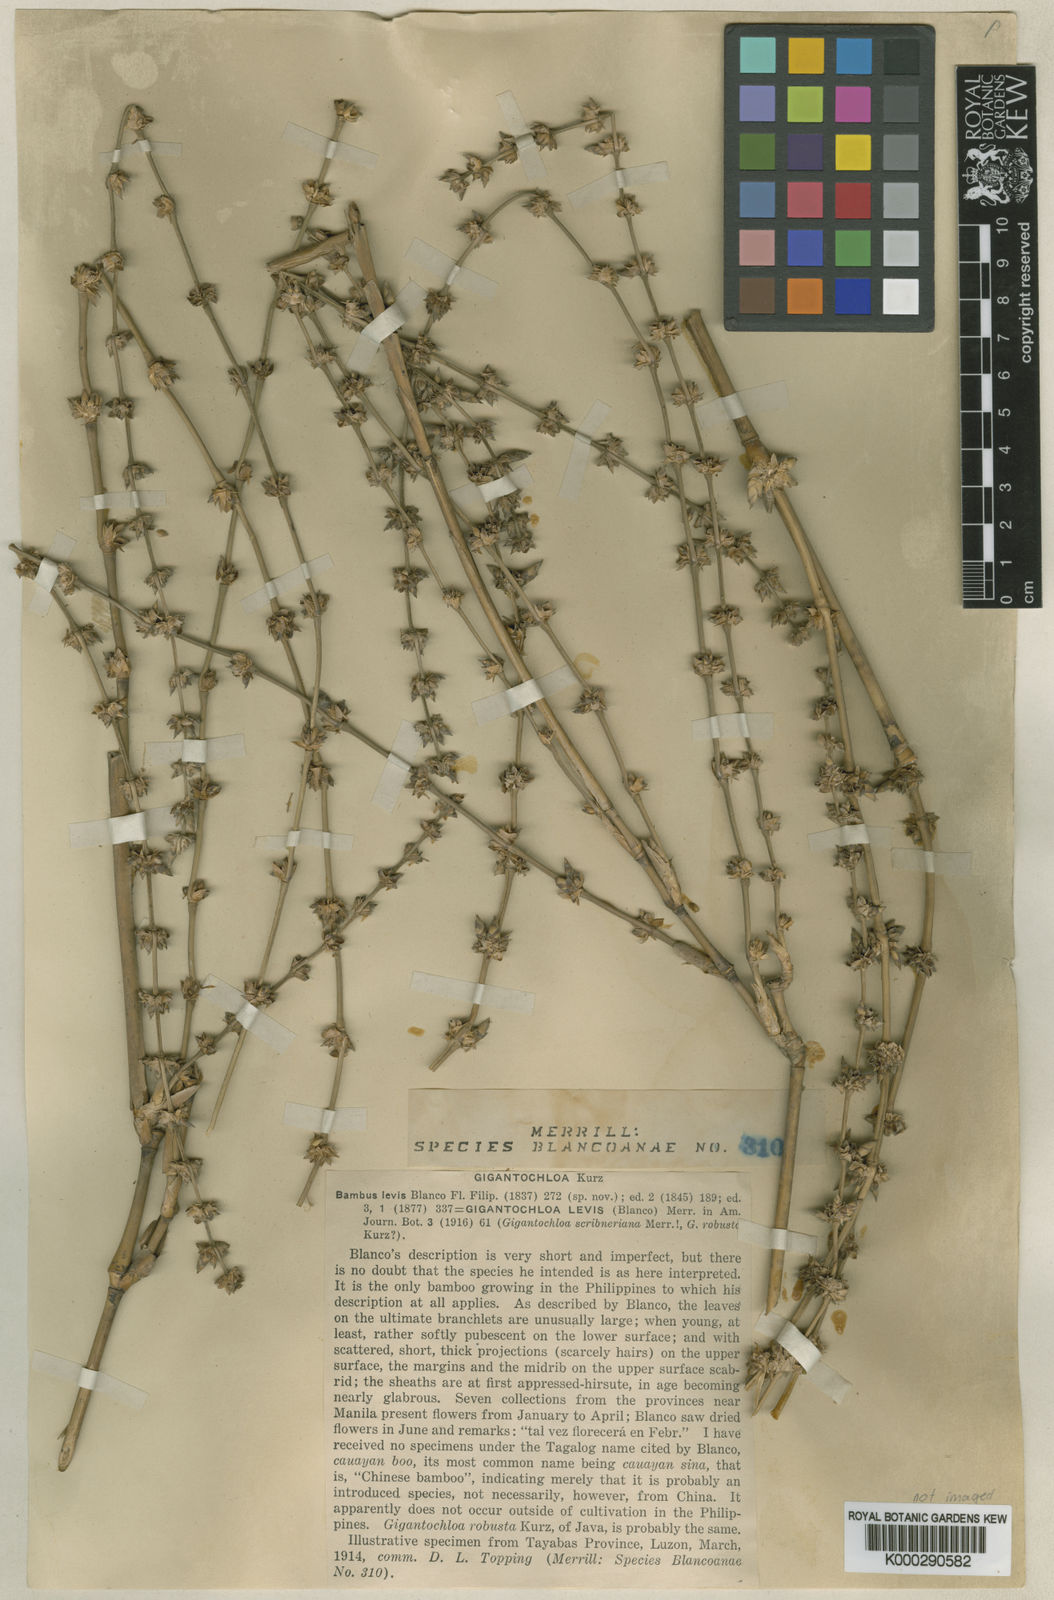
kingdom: Plantae
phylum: Tracheophyta
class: Liliopsida
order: Poales
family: Poaceae
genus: Gigantochloa
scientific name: Gigantochloa levis
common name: Smooth-shoot gigantochloa
